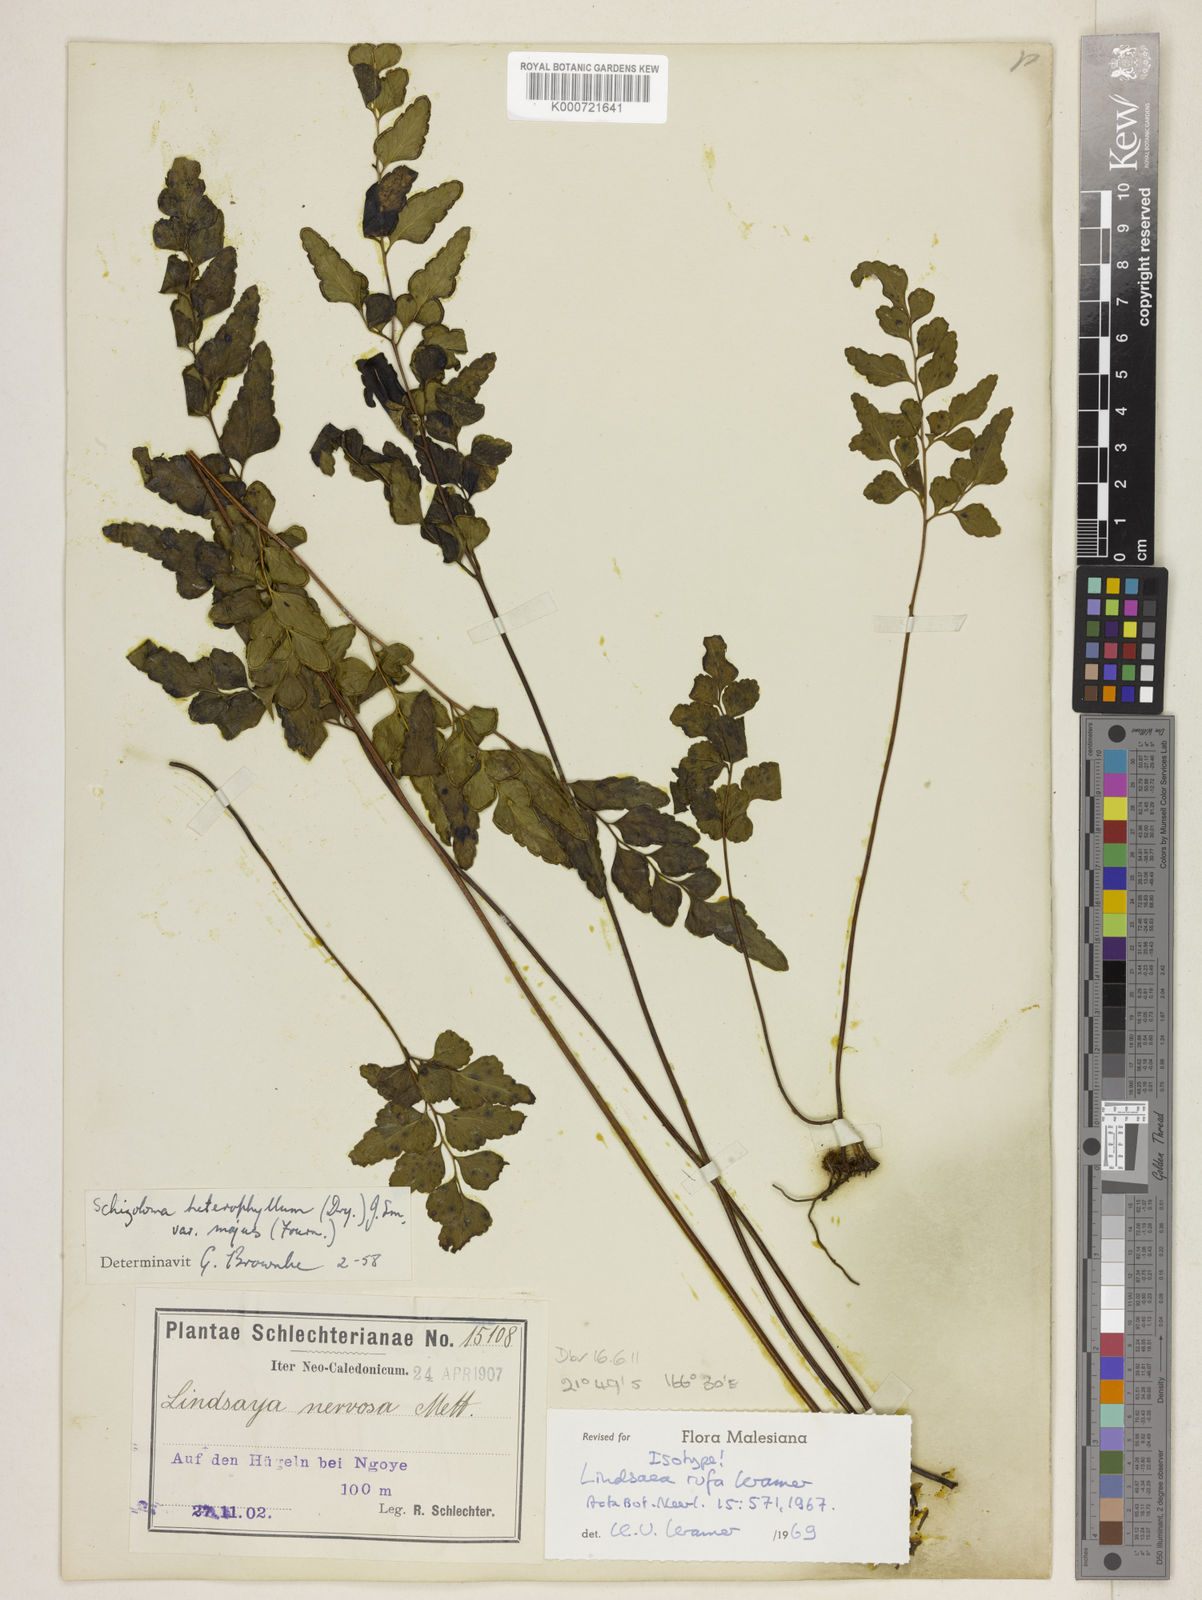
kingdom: Plantae
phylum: Tracheophyta
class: Polypodiopsida
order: Polypodiales
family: Lindsaeaceae
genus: Lindsaea
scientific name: Lindsaea rufa
